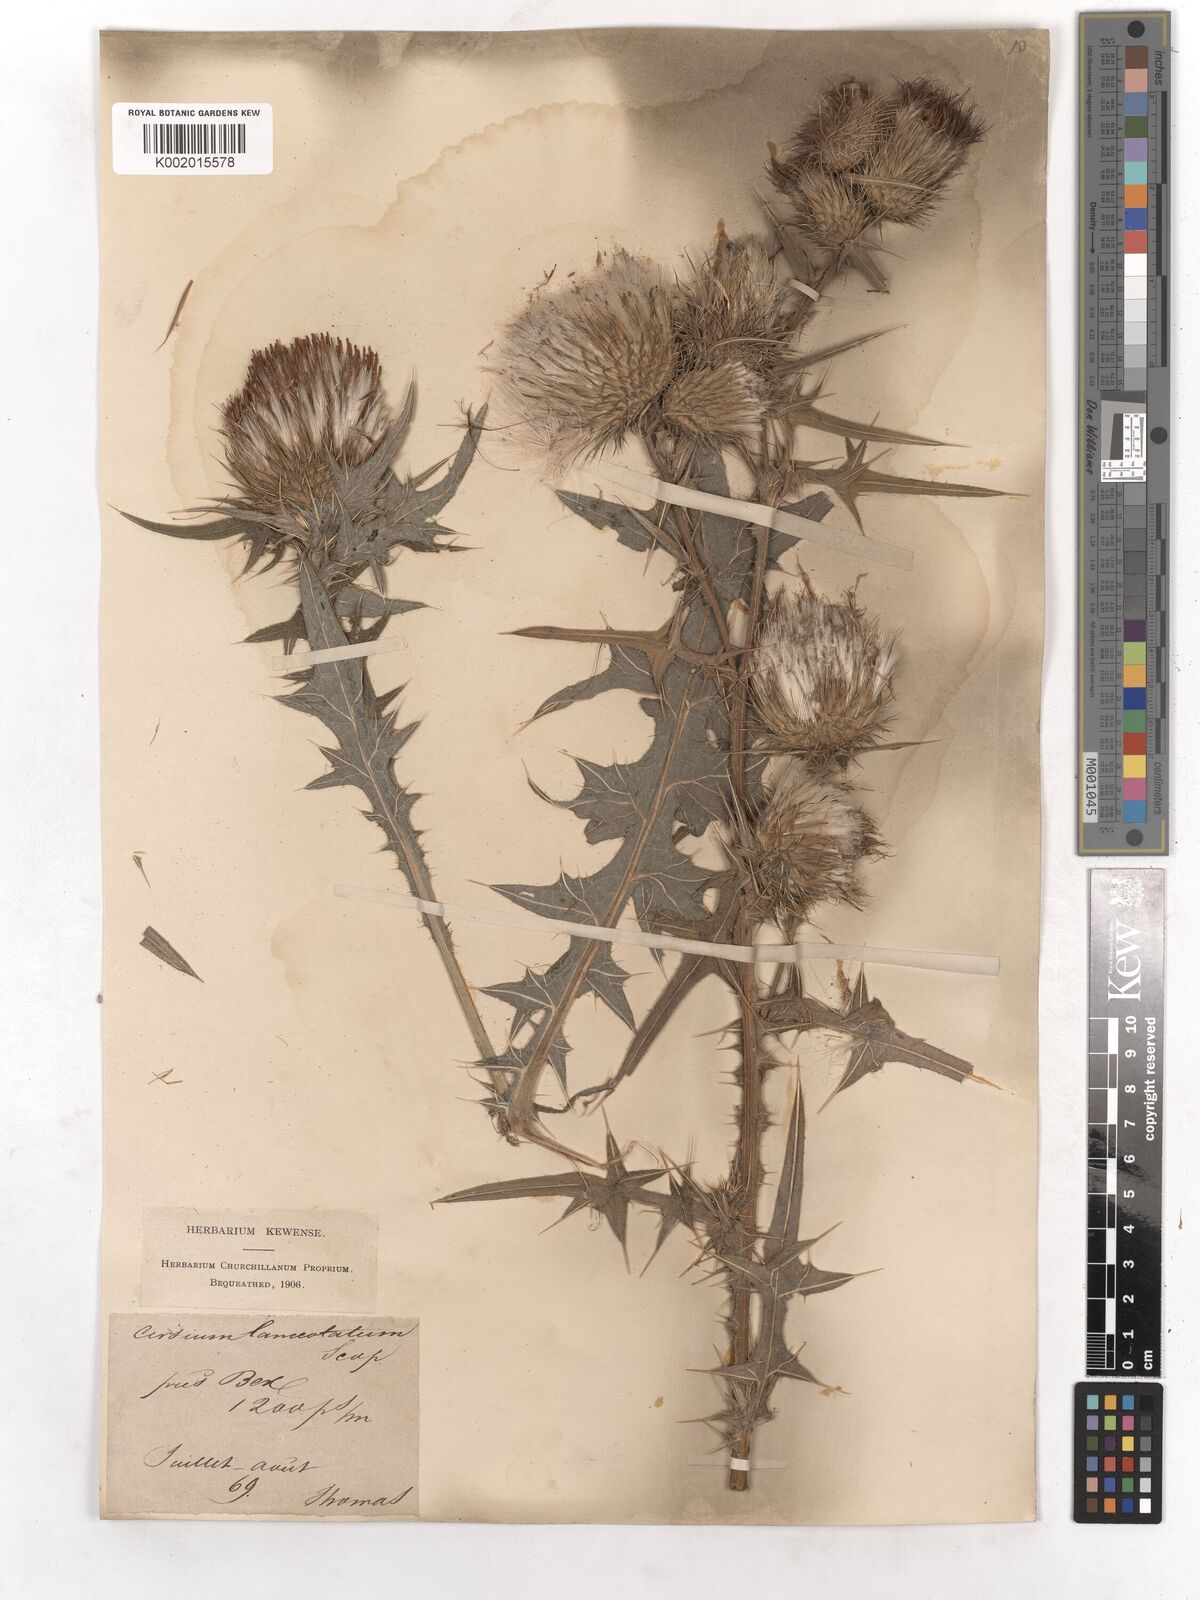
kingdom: Plantae
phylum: Tracheophyta
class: Magnoliopsida
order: Asterales
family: Asteraceae
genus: Cirsium
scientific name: Cirsium vulgare
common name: Bull thistle
